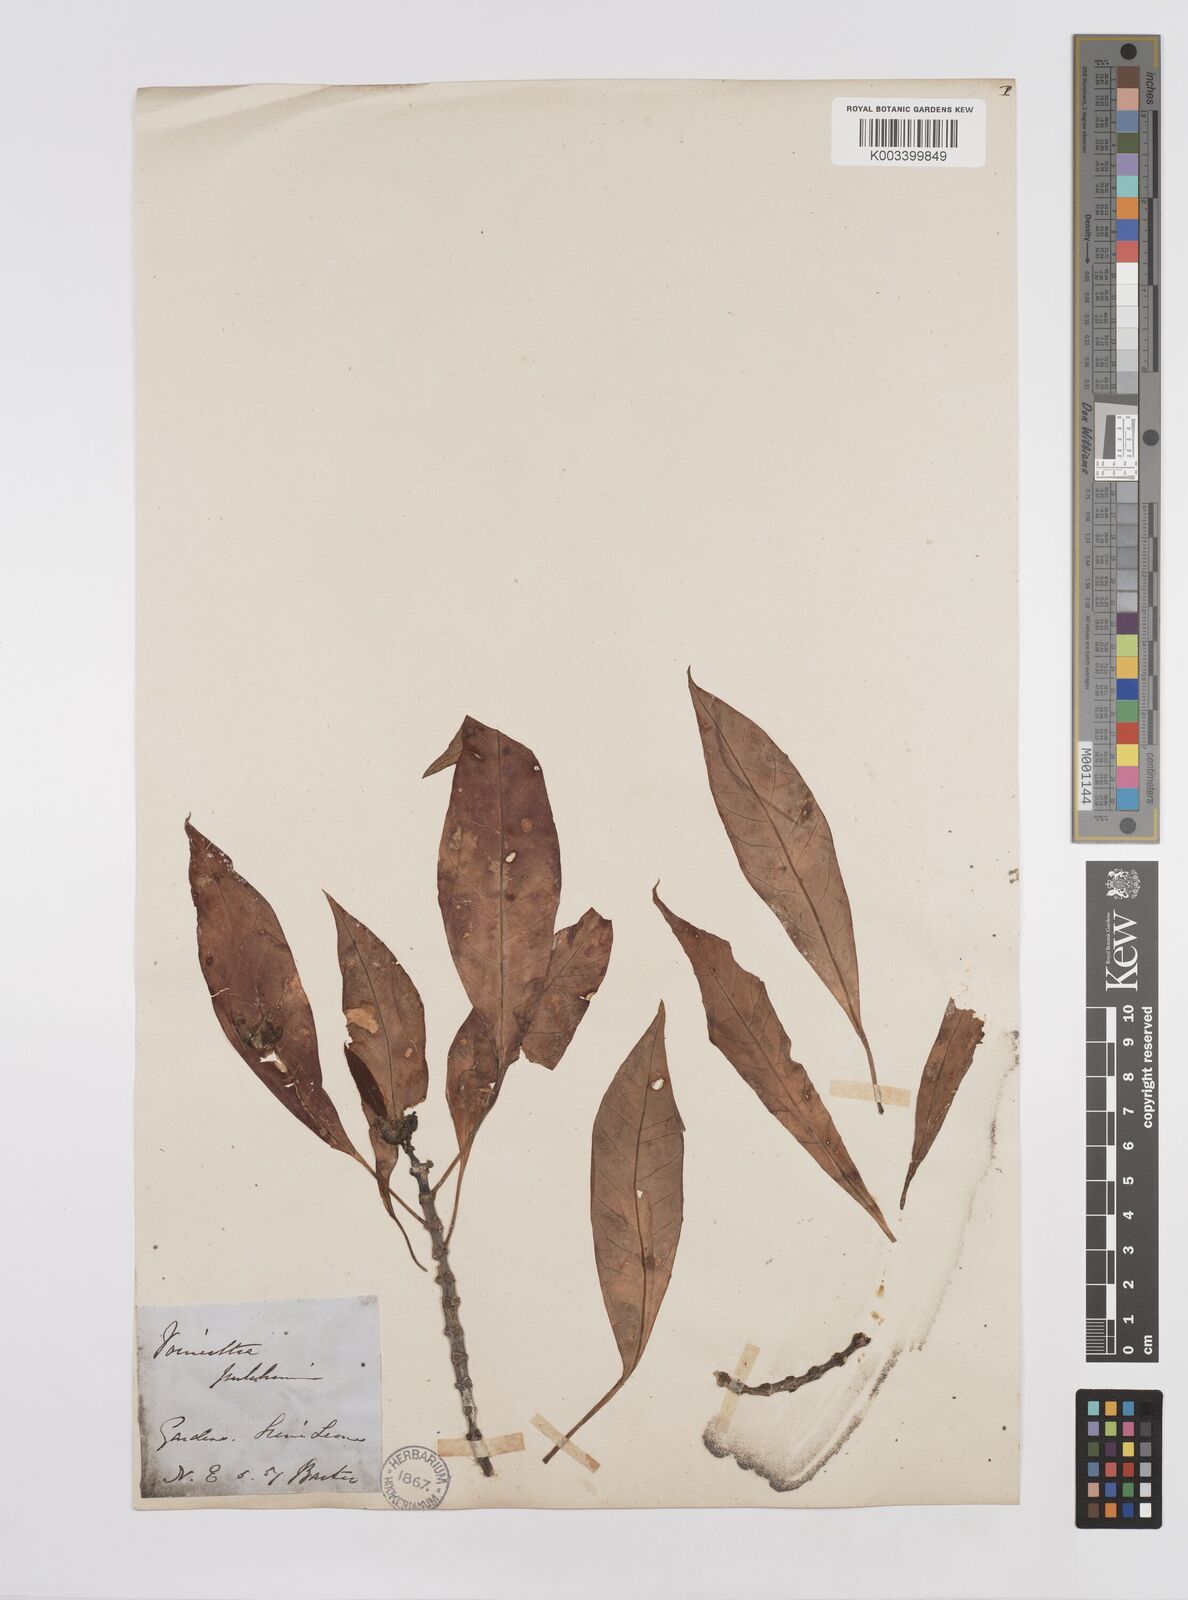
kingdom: Plantae
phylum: Tracheophyta
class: Magnoliopsida
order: Malpighiales
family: Euphorbiaceae
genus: Euphorbia
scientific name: Euphorbia pulcherrima
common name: Christmas-flower
